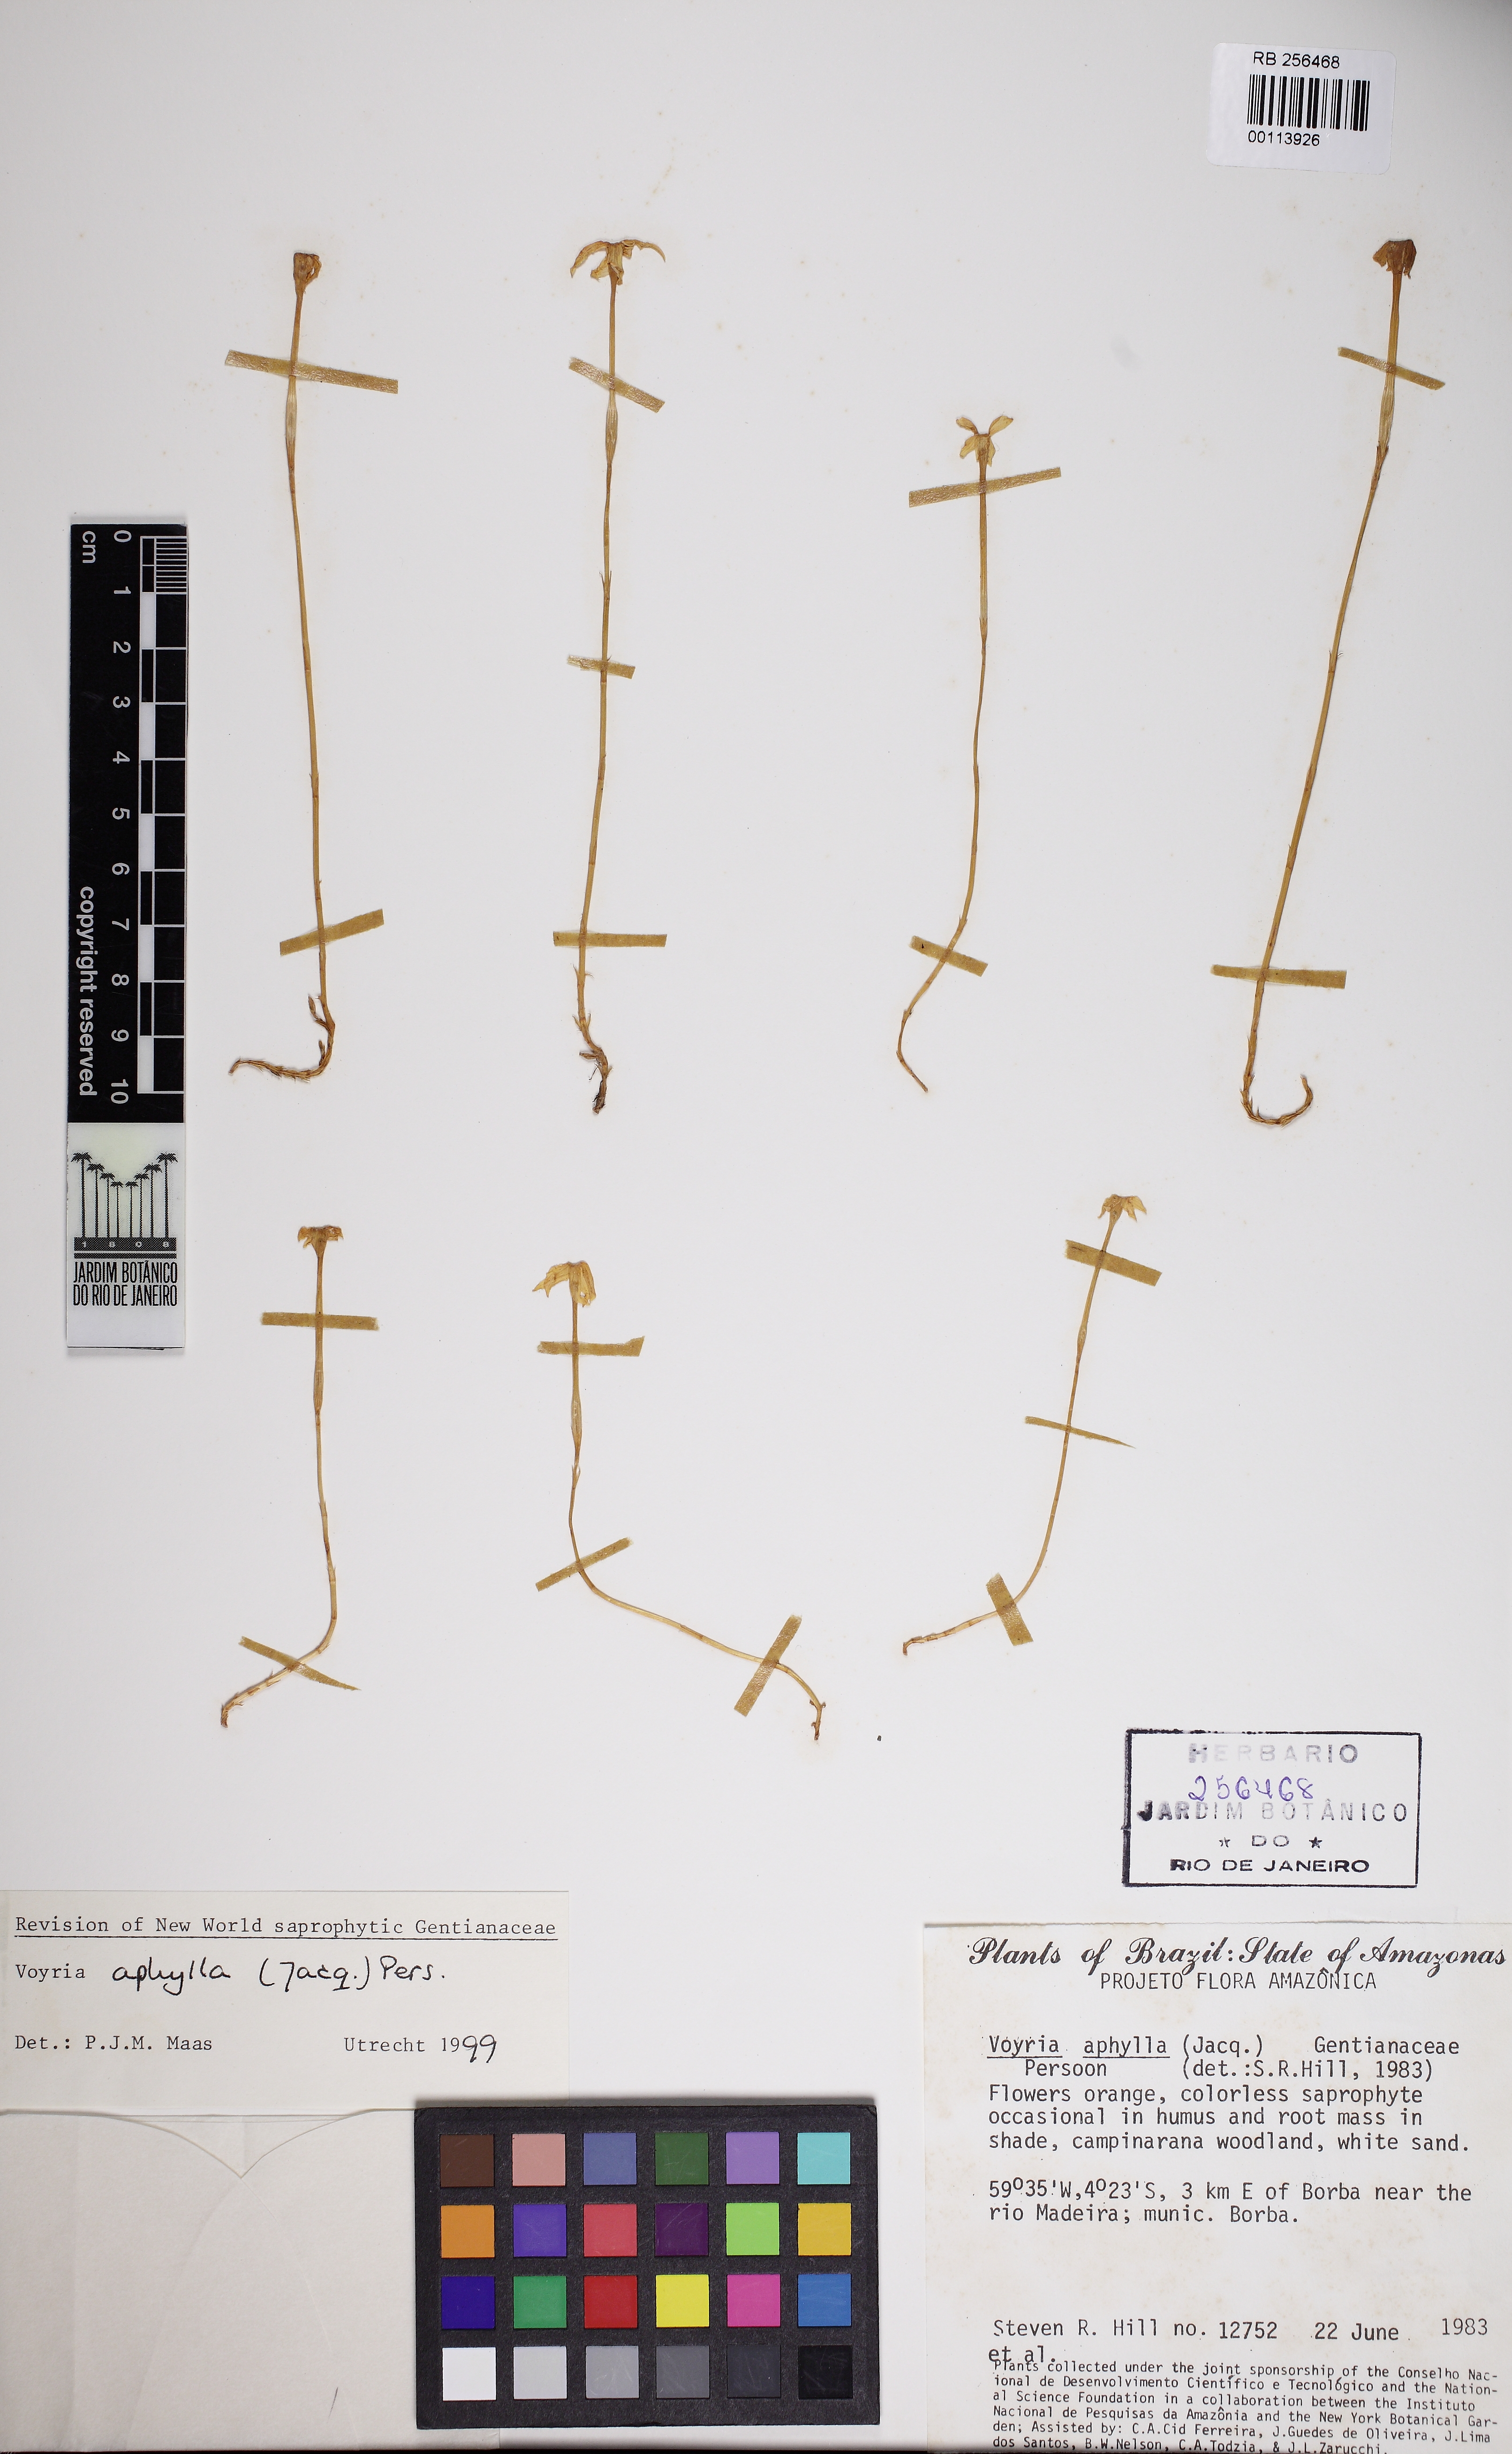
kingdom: Plantae
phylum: Tracheophyta
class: Magnoliopsida
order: Gentianales
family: Gentianaceae
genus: Voyria
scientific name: Voyria aphylla
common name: Leafless ghost plant
